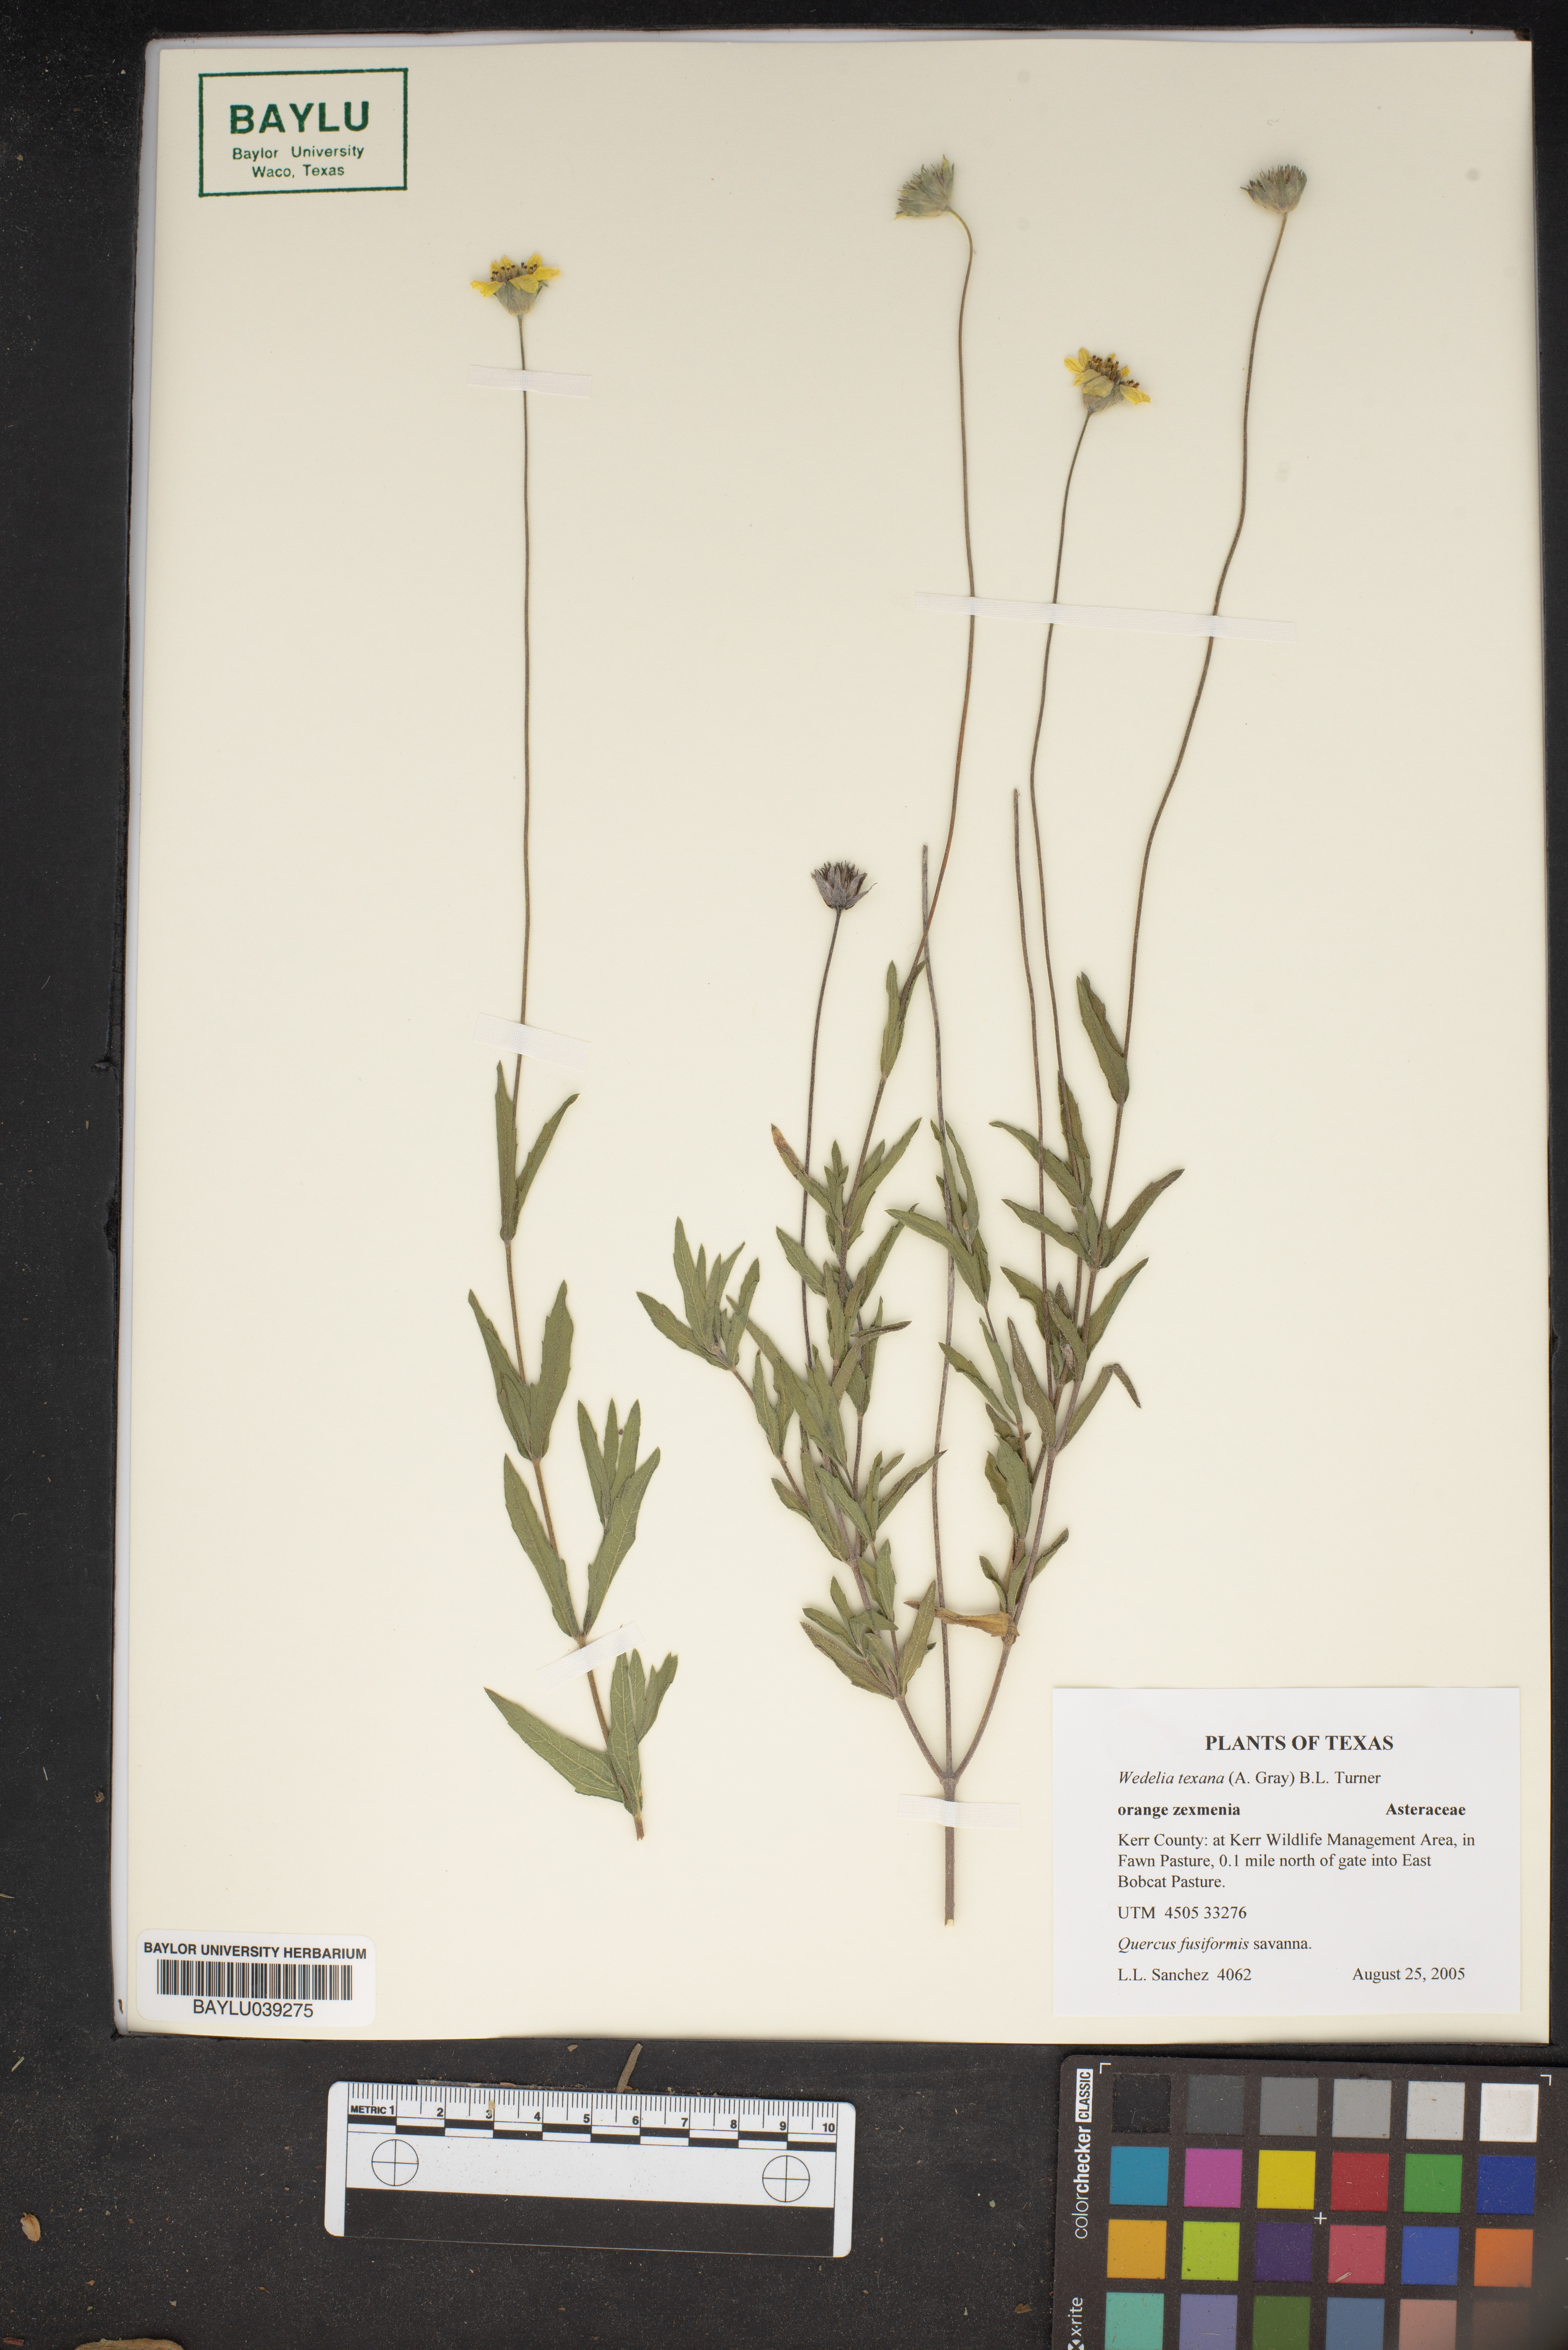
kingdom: Plantae
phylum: Tracheophyta
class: Magnoliopsida
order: Asterales
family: Asteraceae
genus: Wedelia
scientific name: Wedelia acapulcensis
